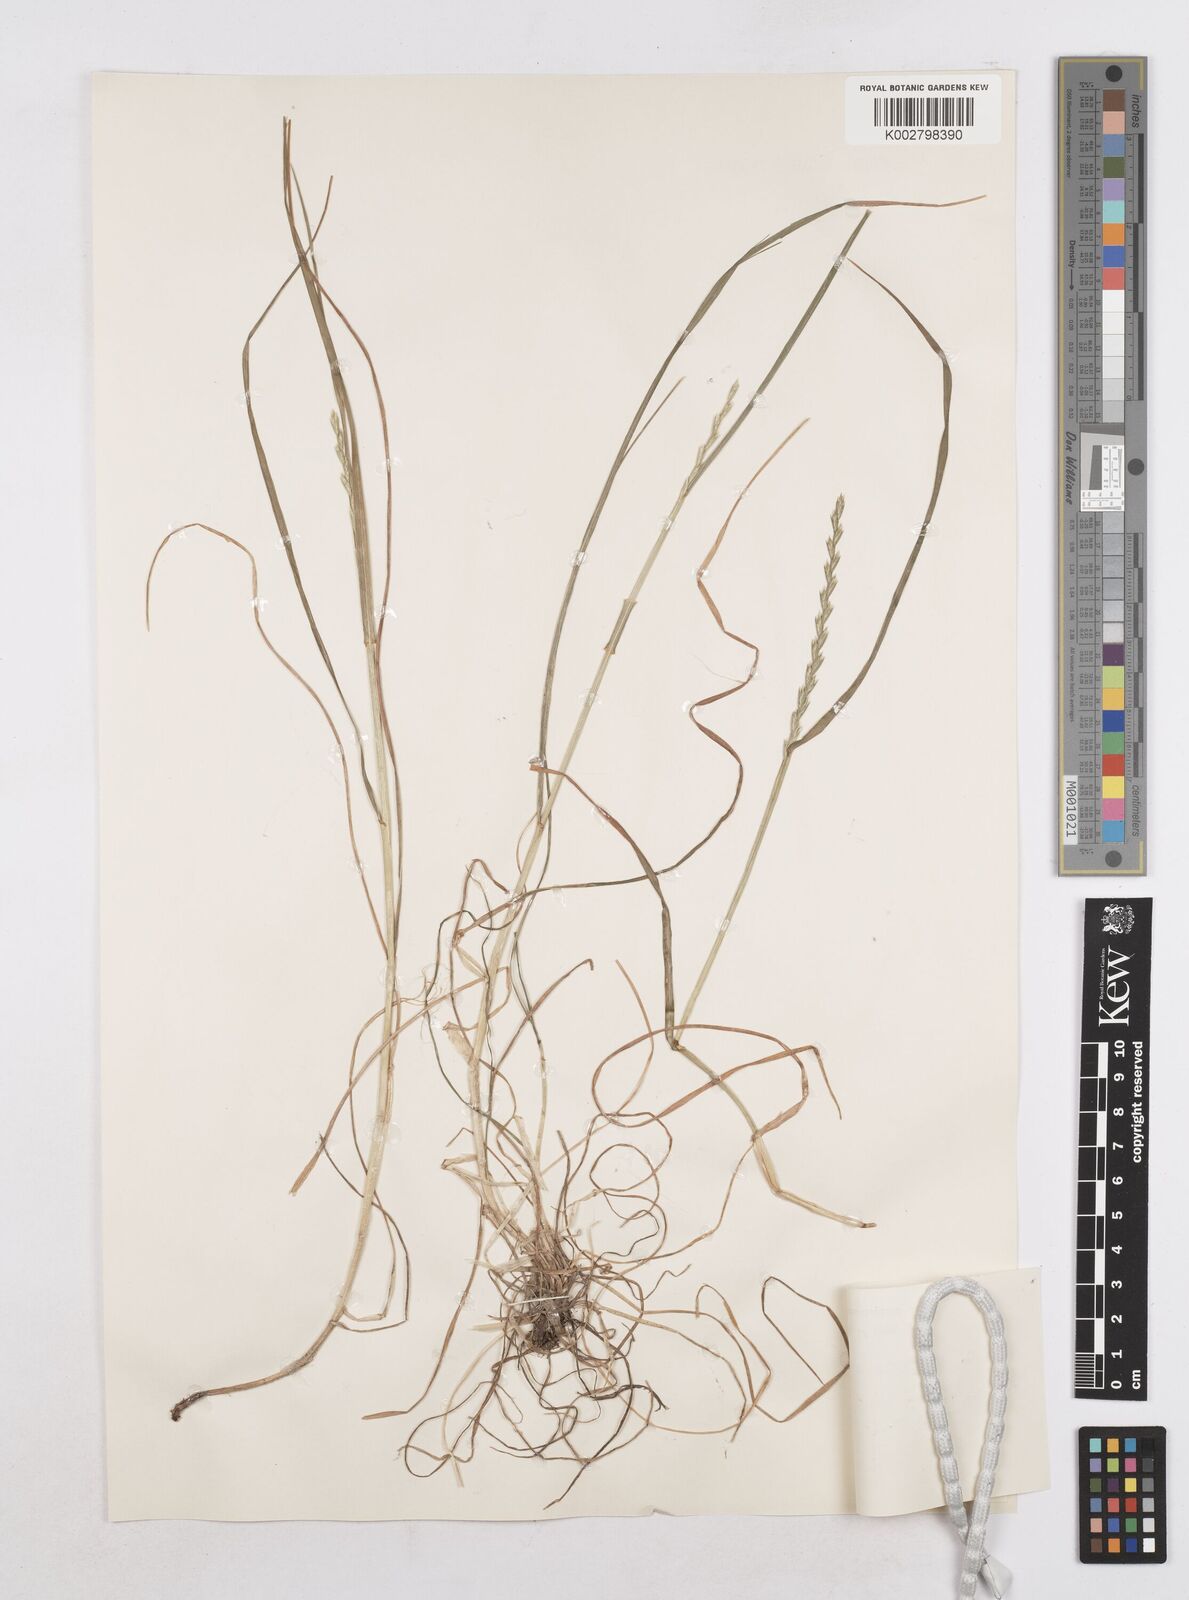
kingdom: Plantae
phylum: Tracheophyta
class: Liliopsida
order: Poales
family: Poaceae
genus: Lolium
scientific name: Lolium perenne
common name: Perennial ryegrass
